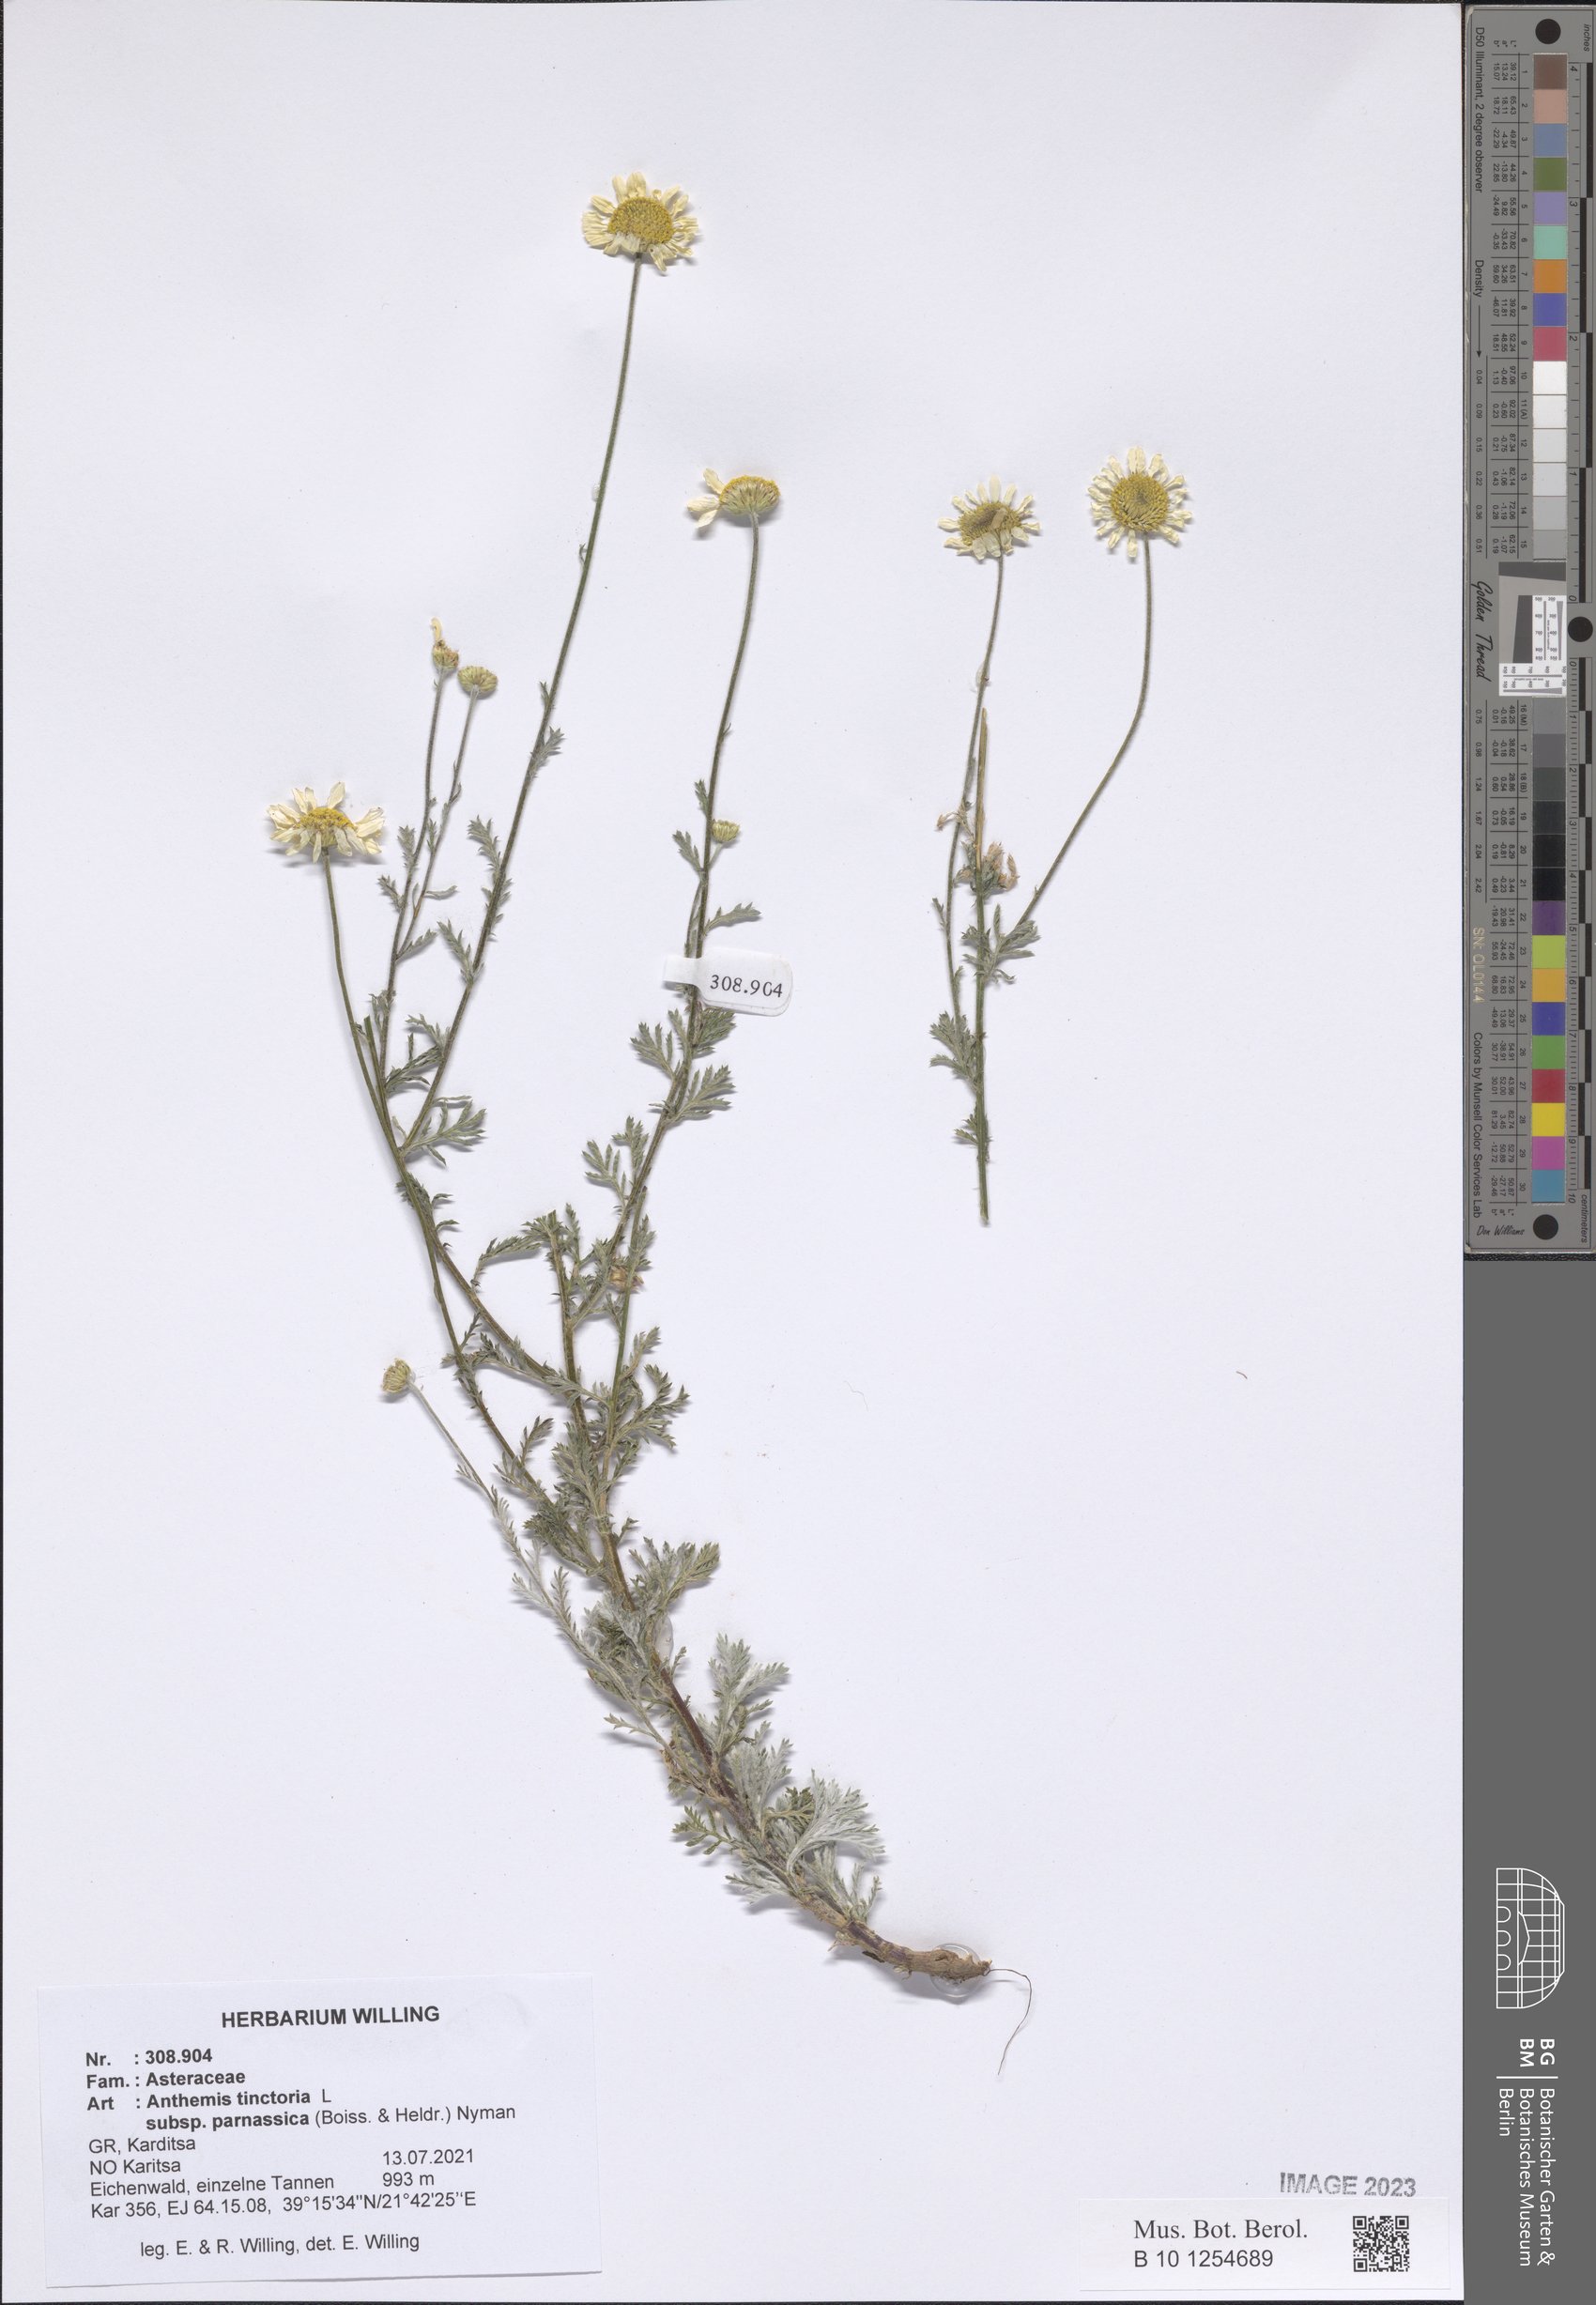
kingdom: Plantae
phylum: Tracheophyta
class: Magnoliopsida
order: Asterales
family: Asteraceae
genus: Cota
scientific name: Cota tinctoria
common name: Golden chamomile
